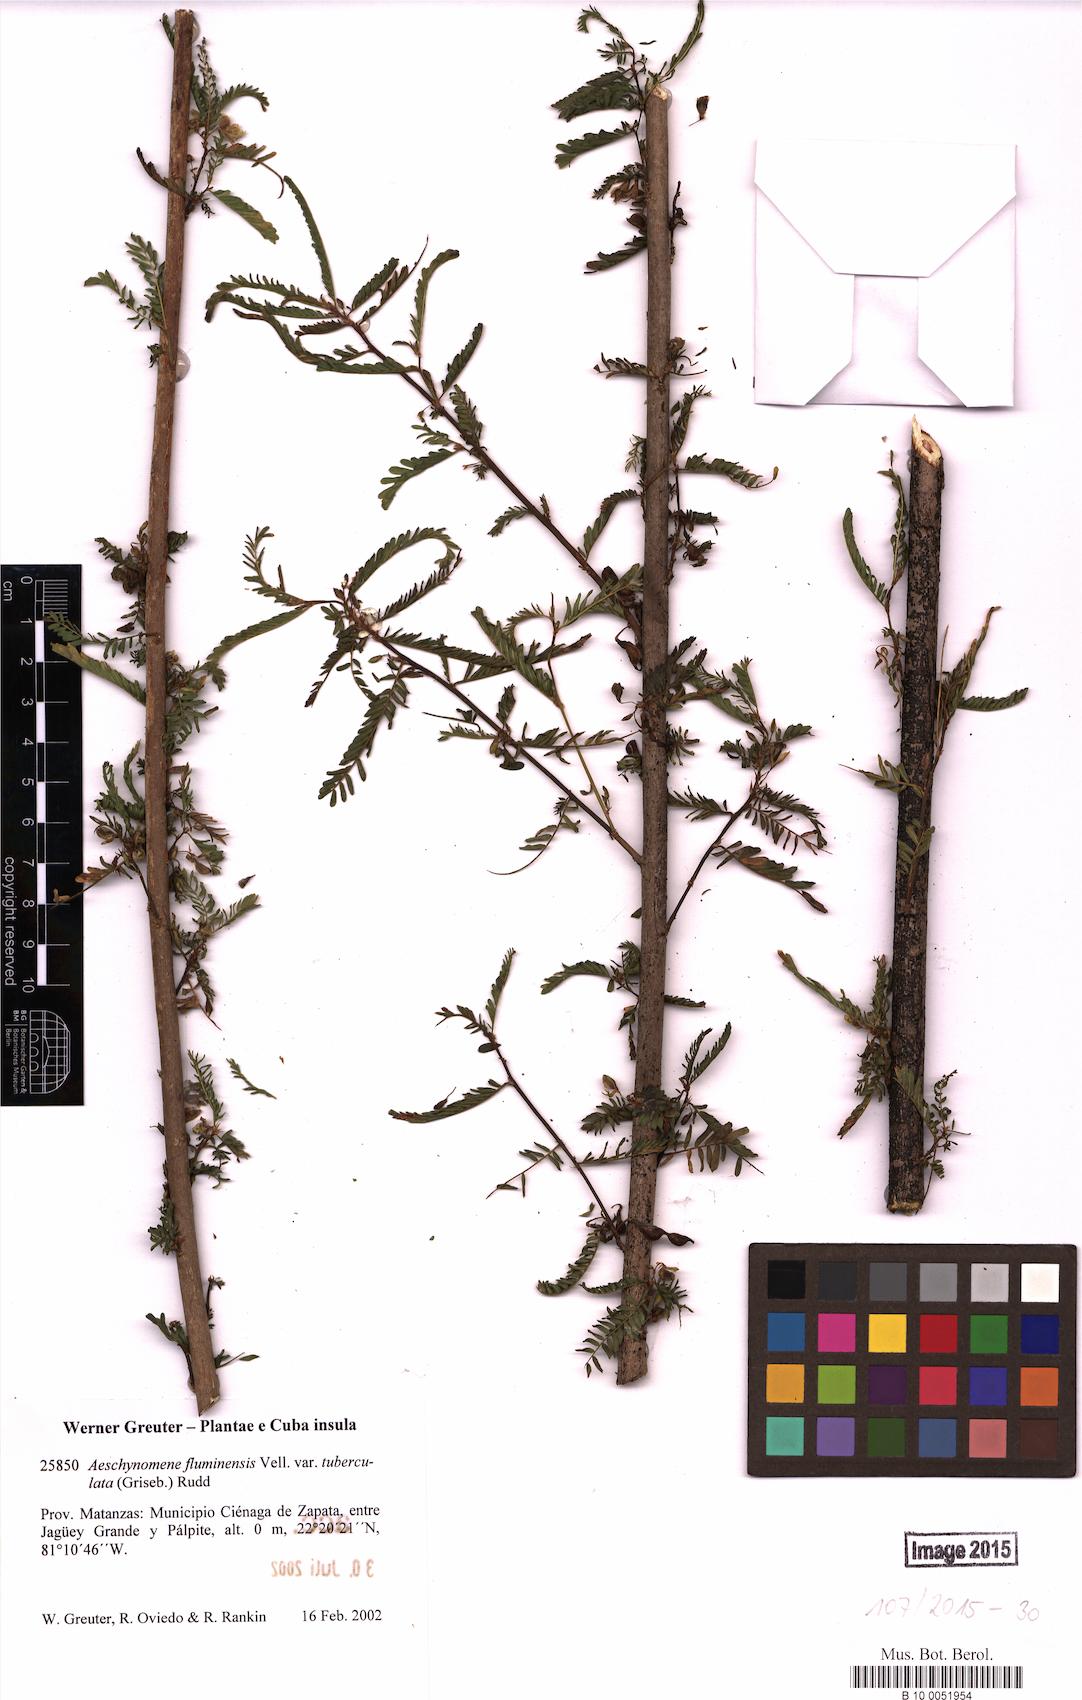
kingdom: Plantae
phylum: Tracheophyta
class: Magnoliopsida
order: Fabales
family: Fabaceae
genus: Aeschynomene
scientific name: Aeschynomene fluminensis
